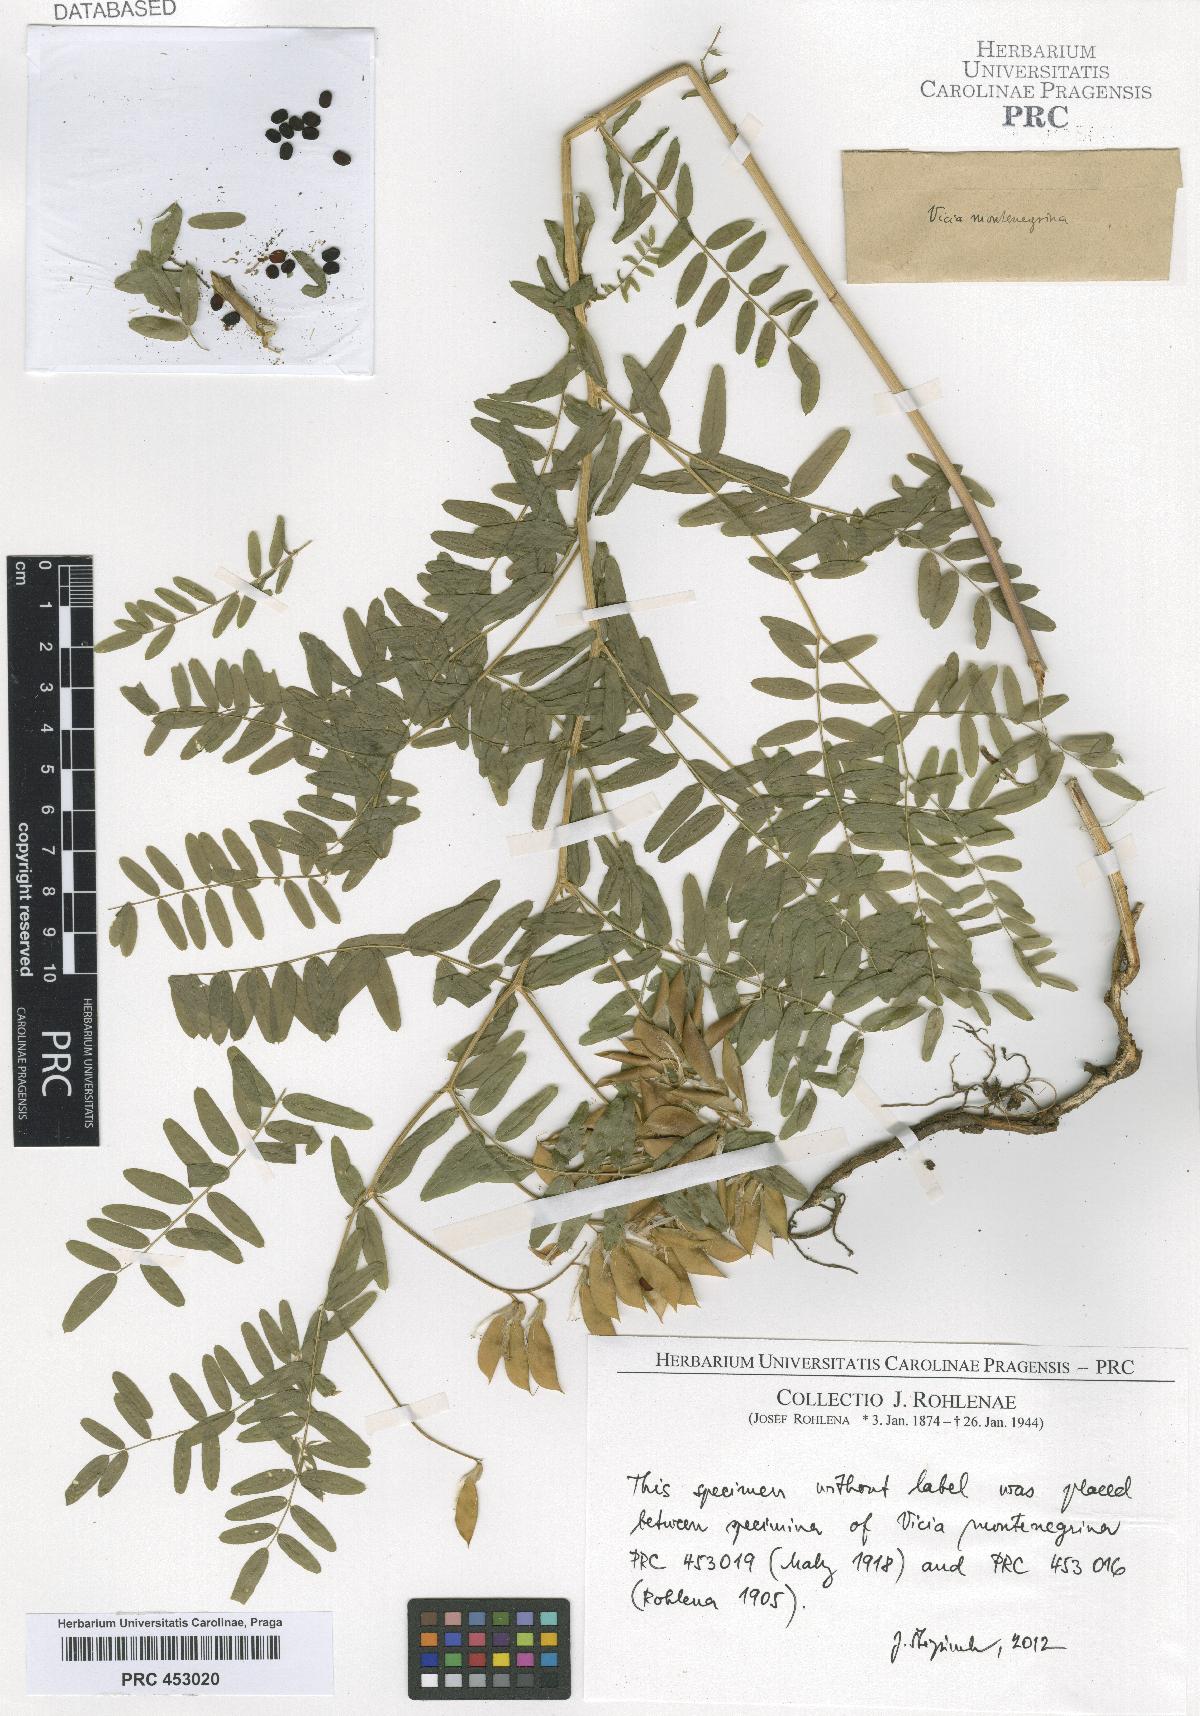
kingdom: Plantae
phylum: Tracheophyta
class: Magnoliopsida
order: Fabales
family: Fabaceae
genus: Vicia
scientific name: Vicia montenegrina
